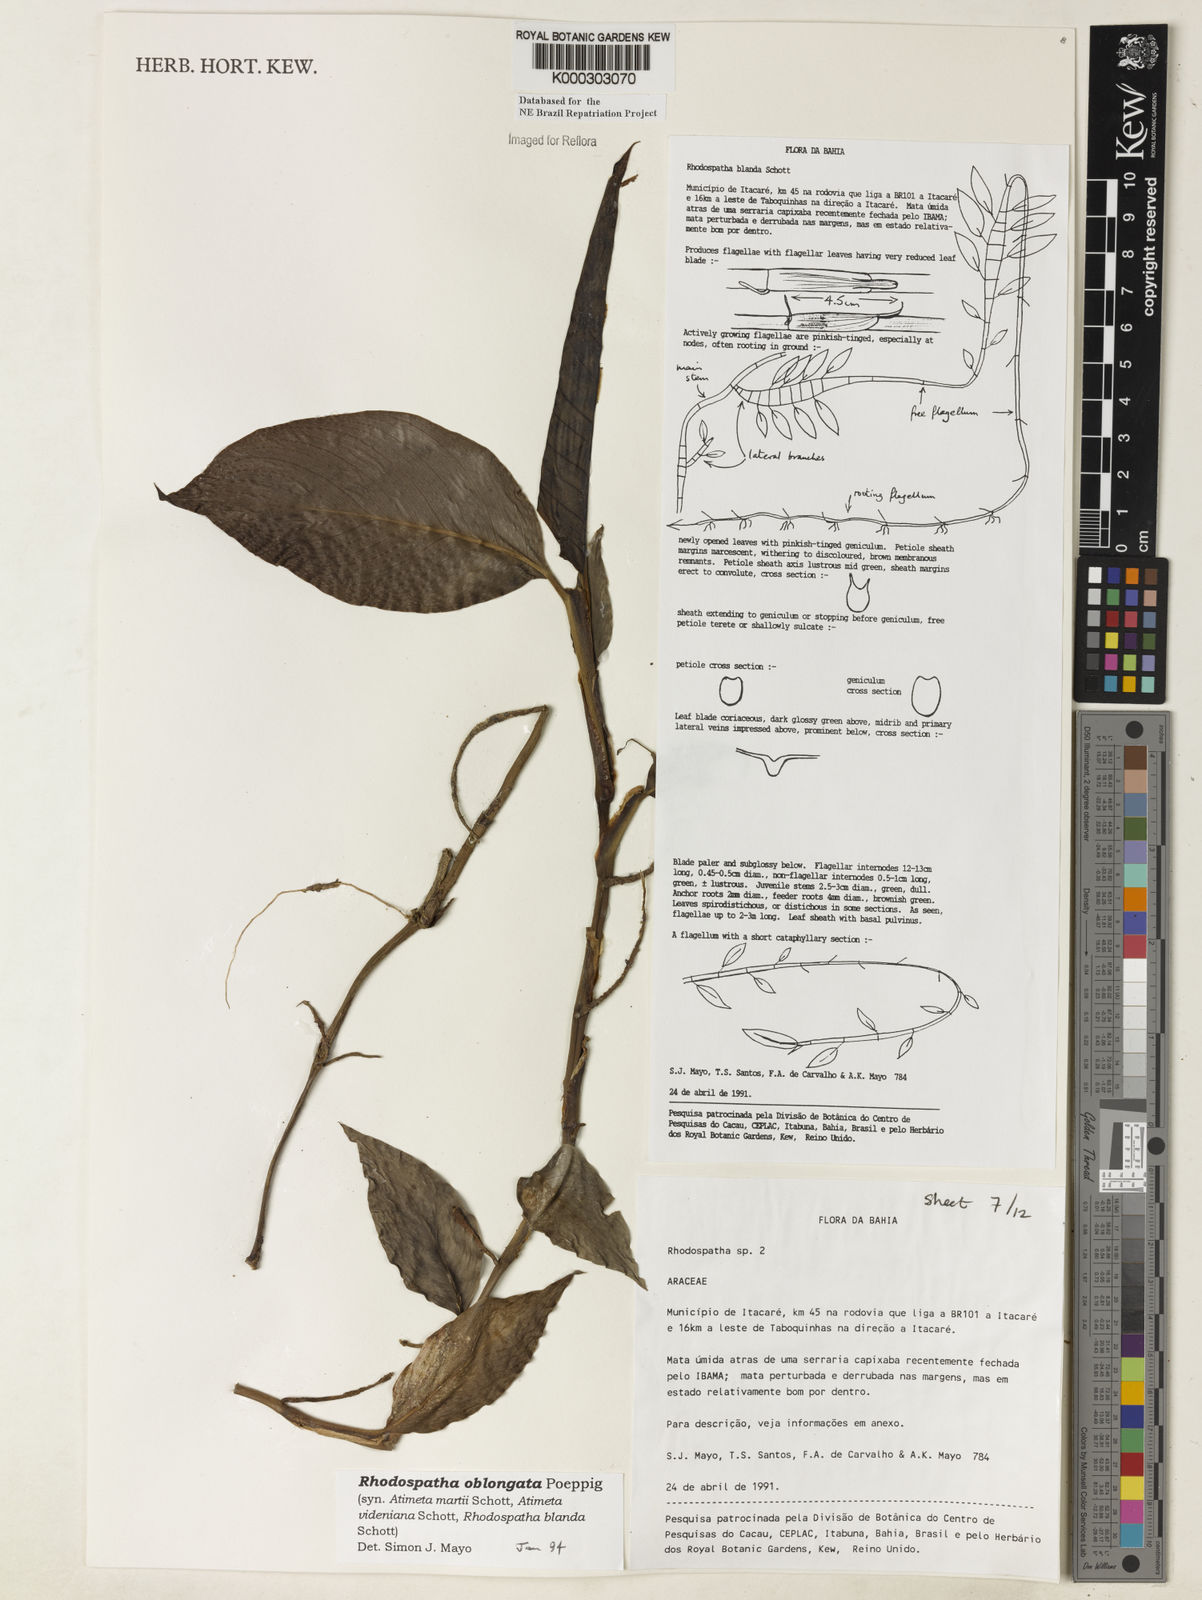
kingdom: Plantae
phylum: Tracheophyta
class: Liliopsida
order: Alismatales
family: Araceae
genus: Rhodospatha
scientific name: Rhodospatha oblongata
